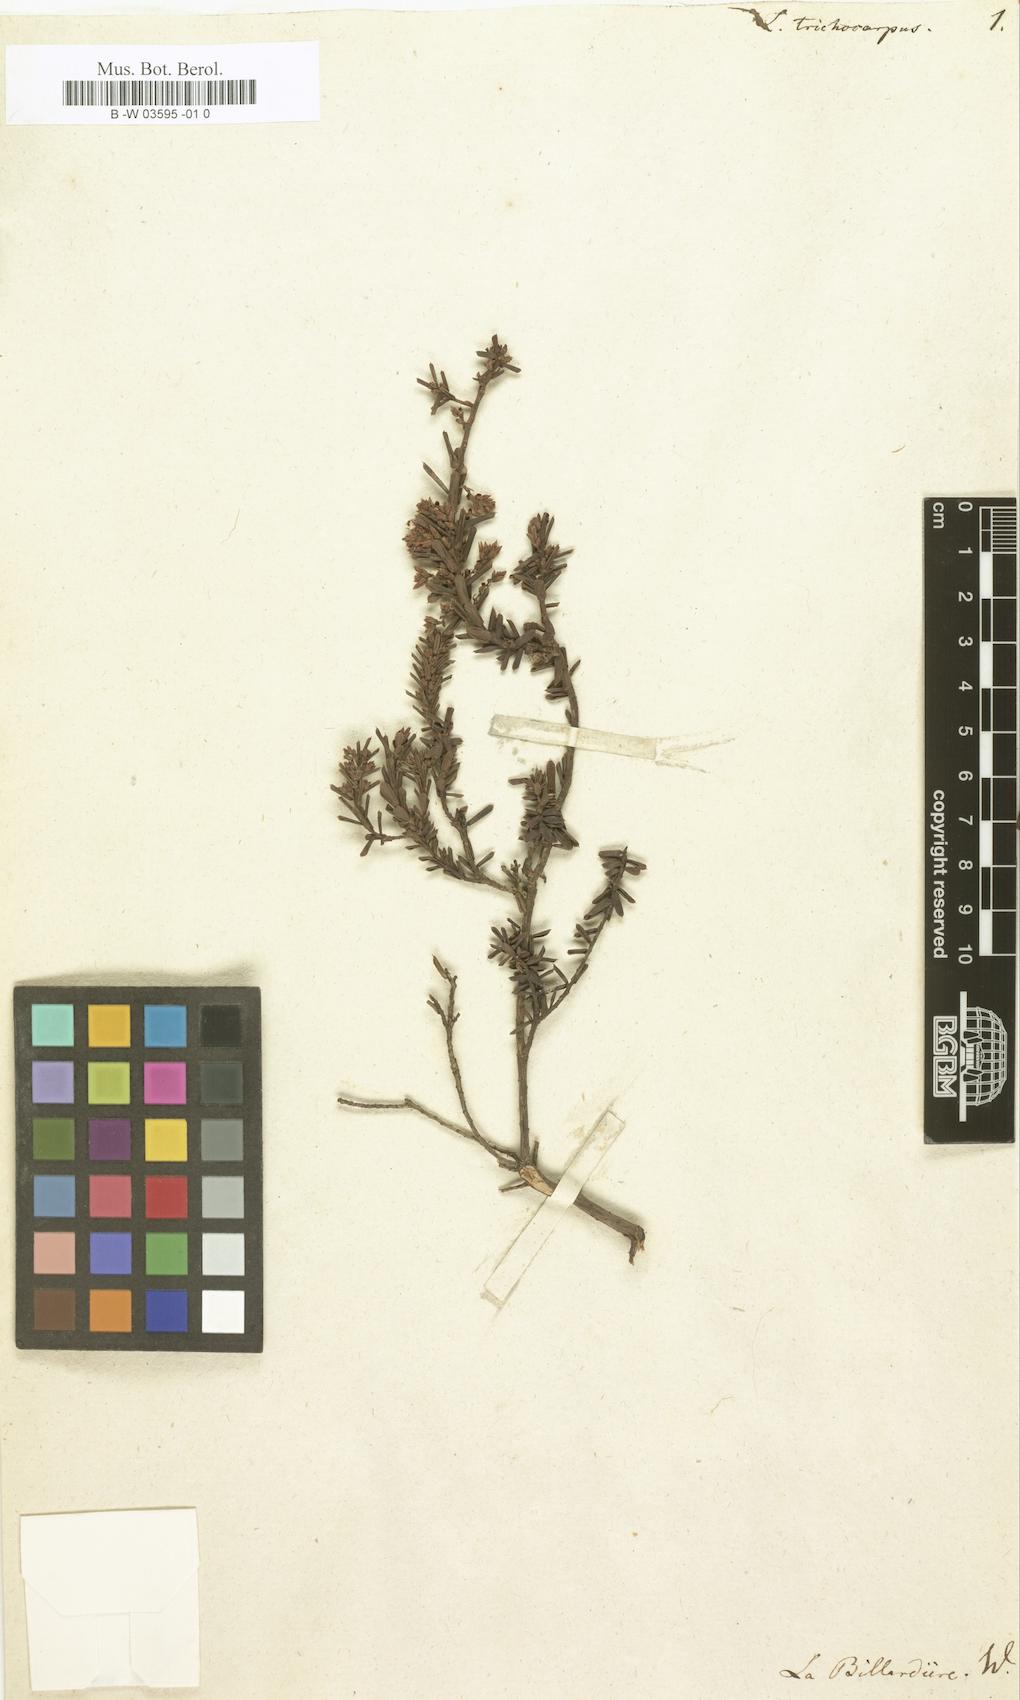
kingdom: Plantae
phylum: Tracheophyta
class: Magnoliopsida
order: Ericales
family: Ericaceae
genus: Styphelia
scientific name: Styphelia ericoides
